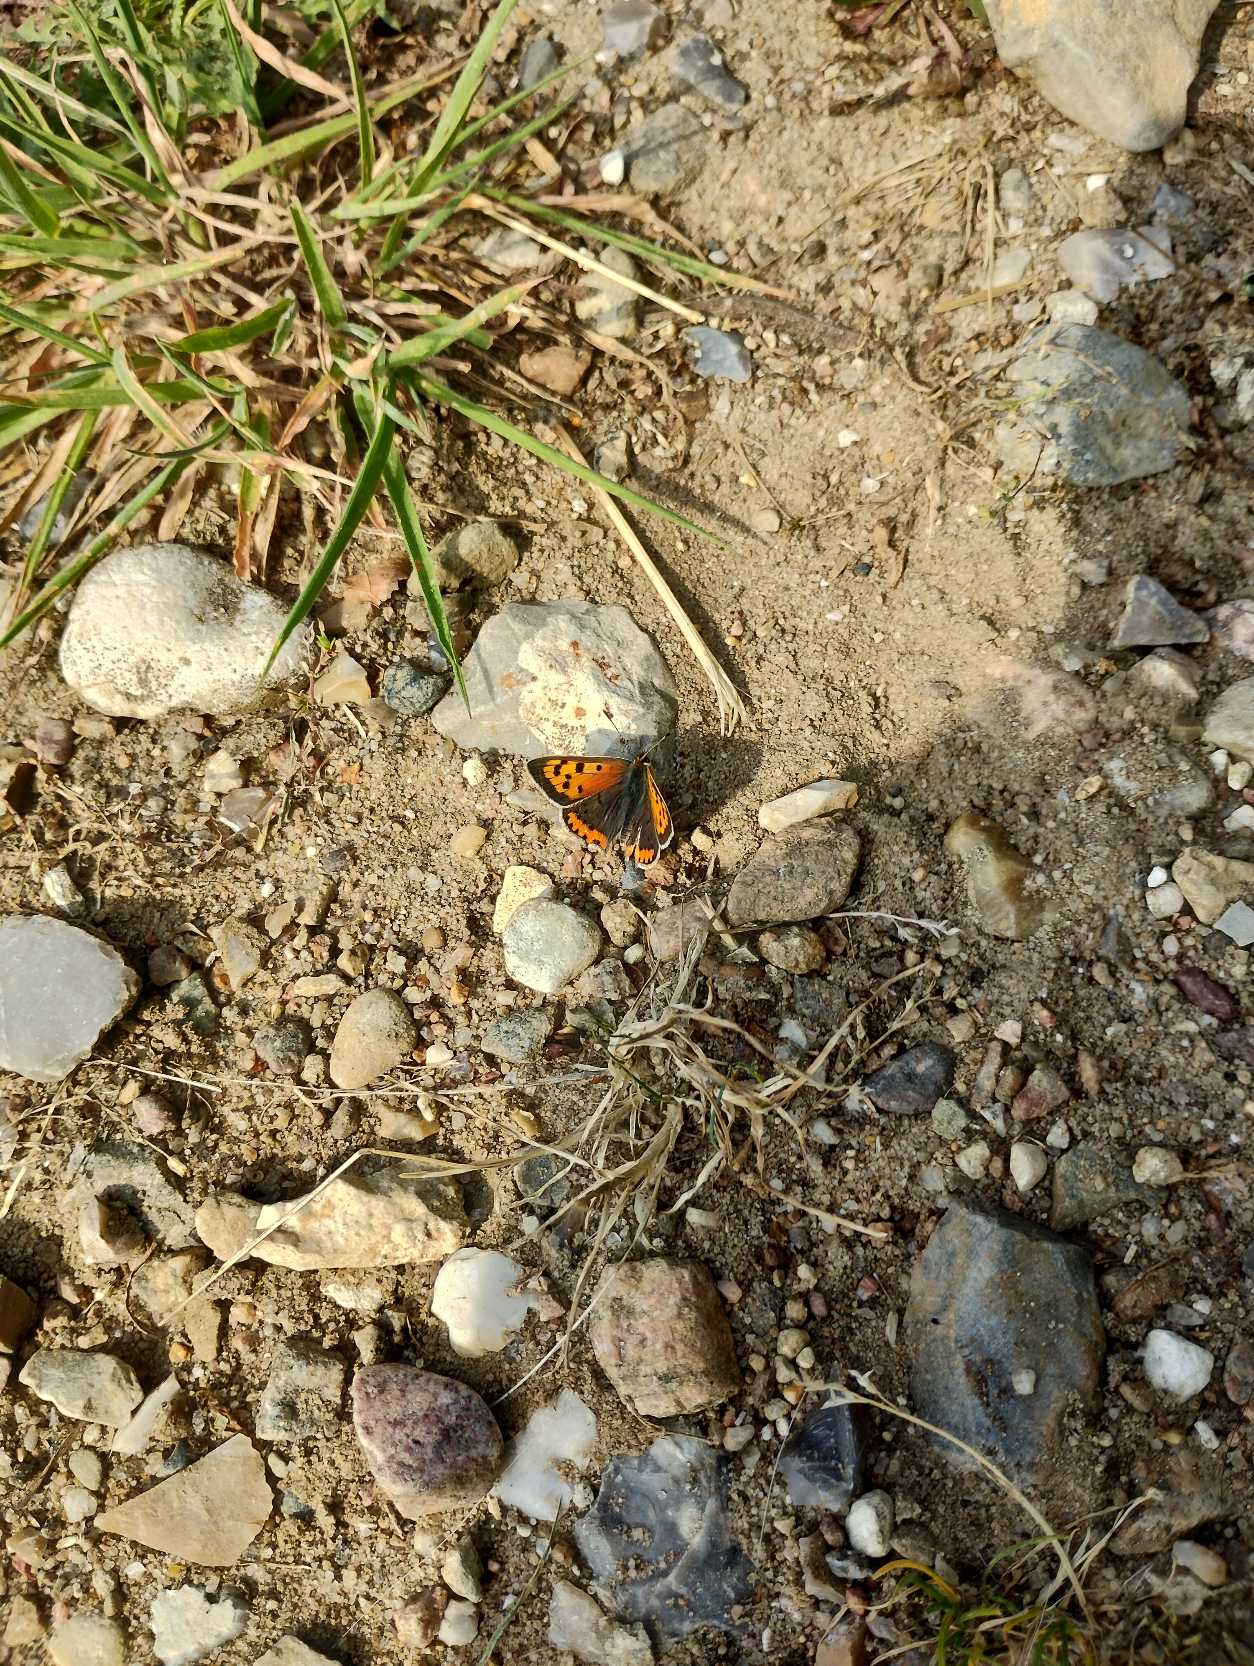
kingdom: Animalia
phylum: Arthropoda
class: Insecta
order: Lepidoptera
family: Lycaenidae
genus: Lycaena
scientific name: Lycaena phlaeas
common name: Lille ildfugl
